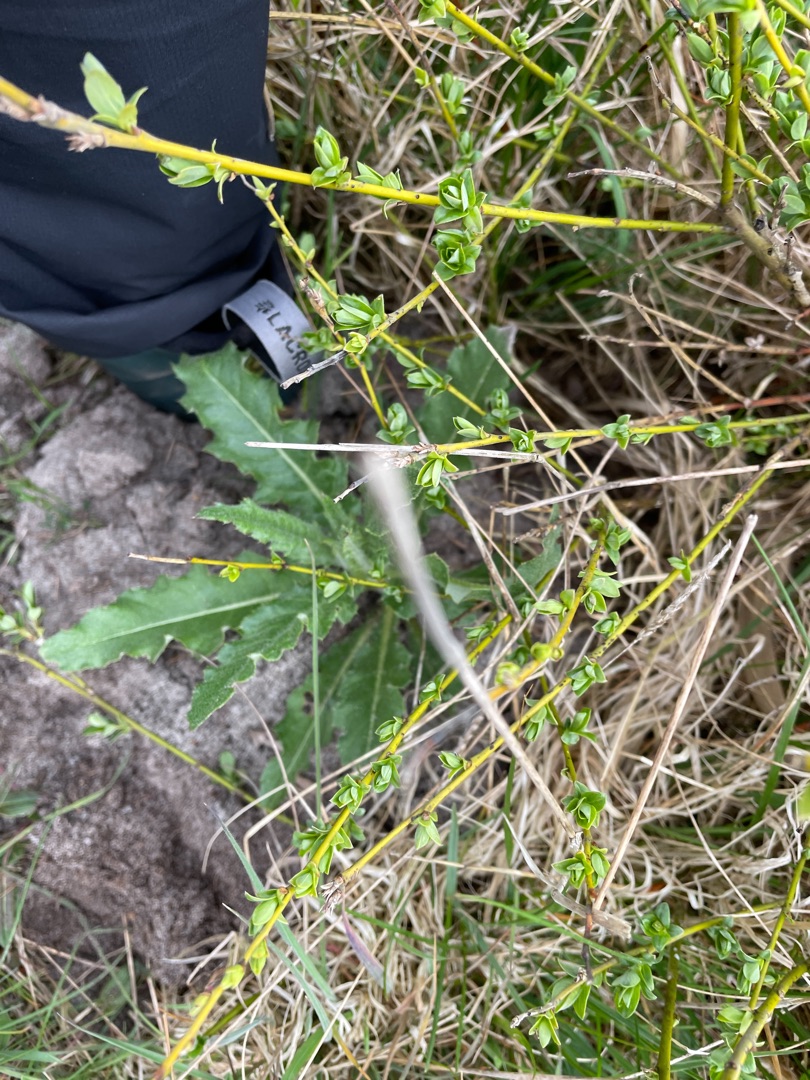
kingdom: Plantae
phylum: Tracheophyta
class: Magnoliopsida
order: Asterales
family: Asteraceae
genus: Cirsium
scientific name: Cirsium arvense
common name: Ager-tidsel
